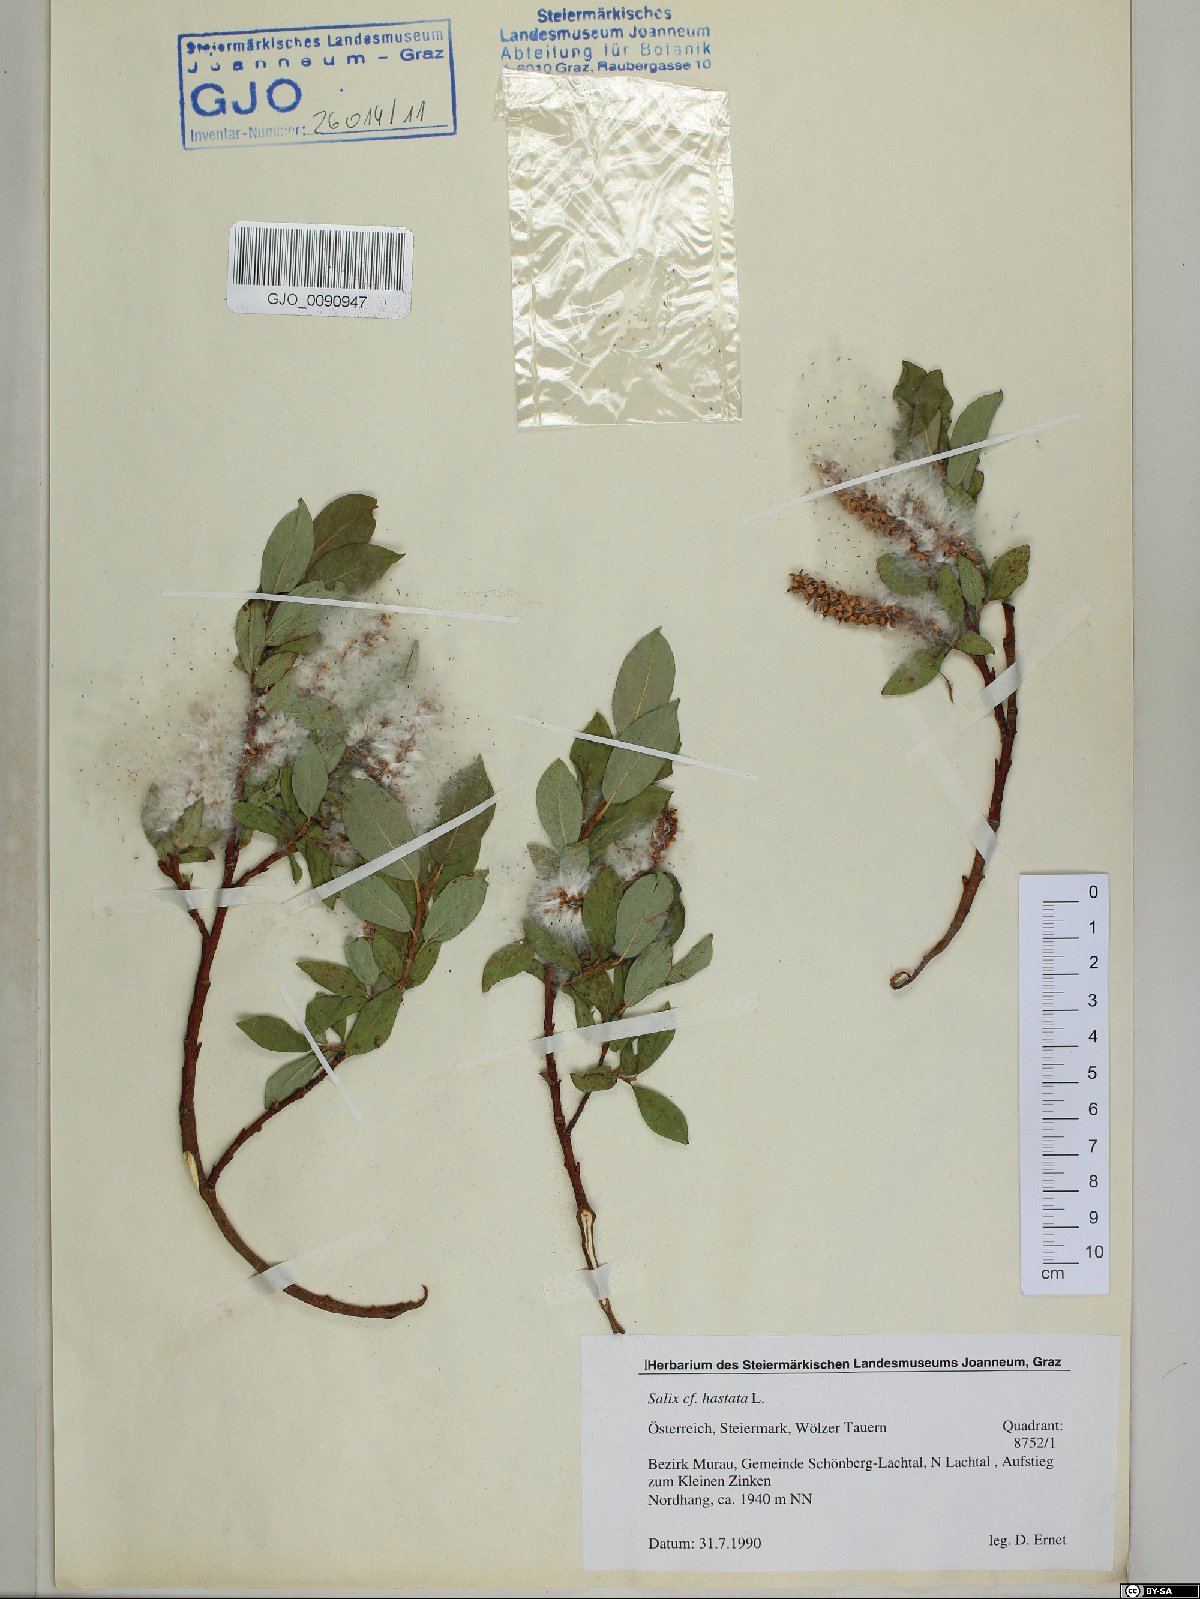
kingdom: Plantae
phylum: Tracheophyta
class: Magnoliopsida
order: Malpighiales
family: Salicaceae
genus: Salix
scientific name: Salix hastata
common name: Halberd willow
